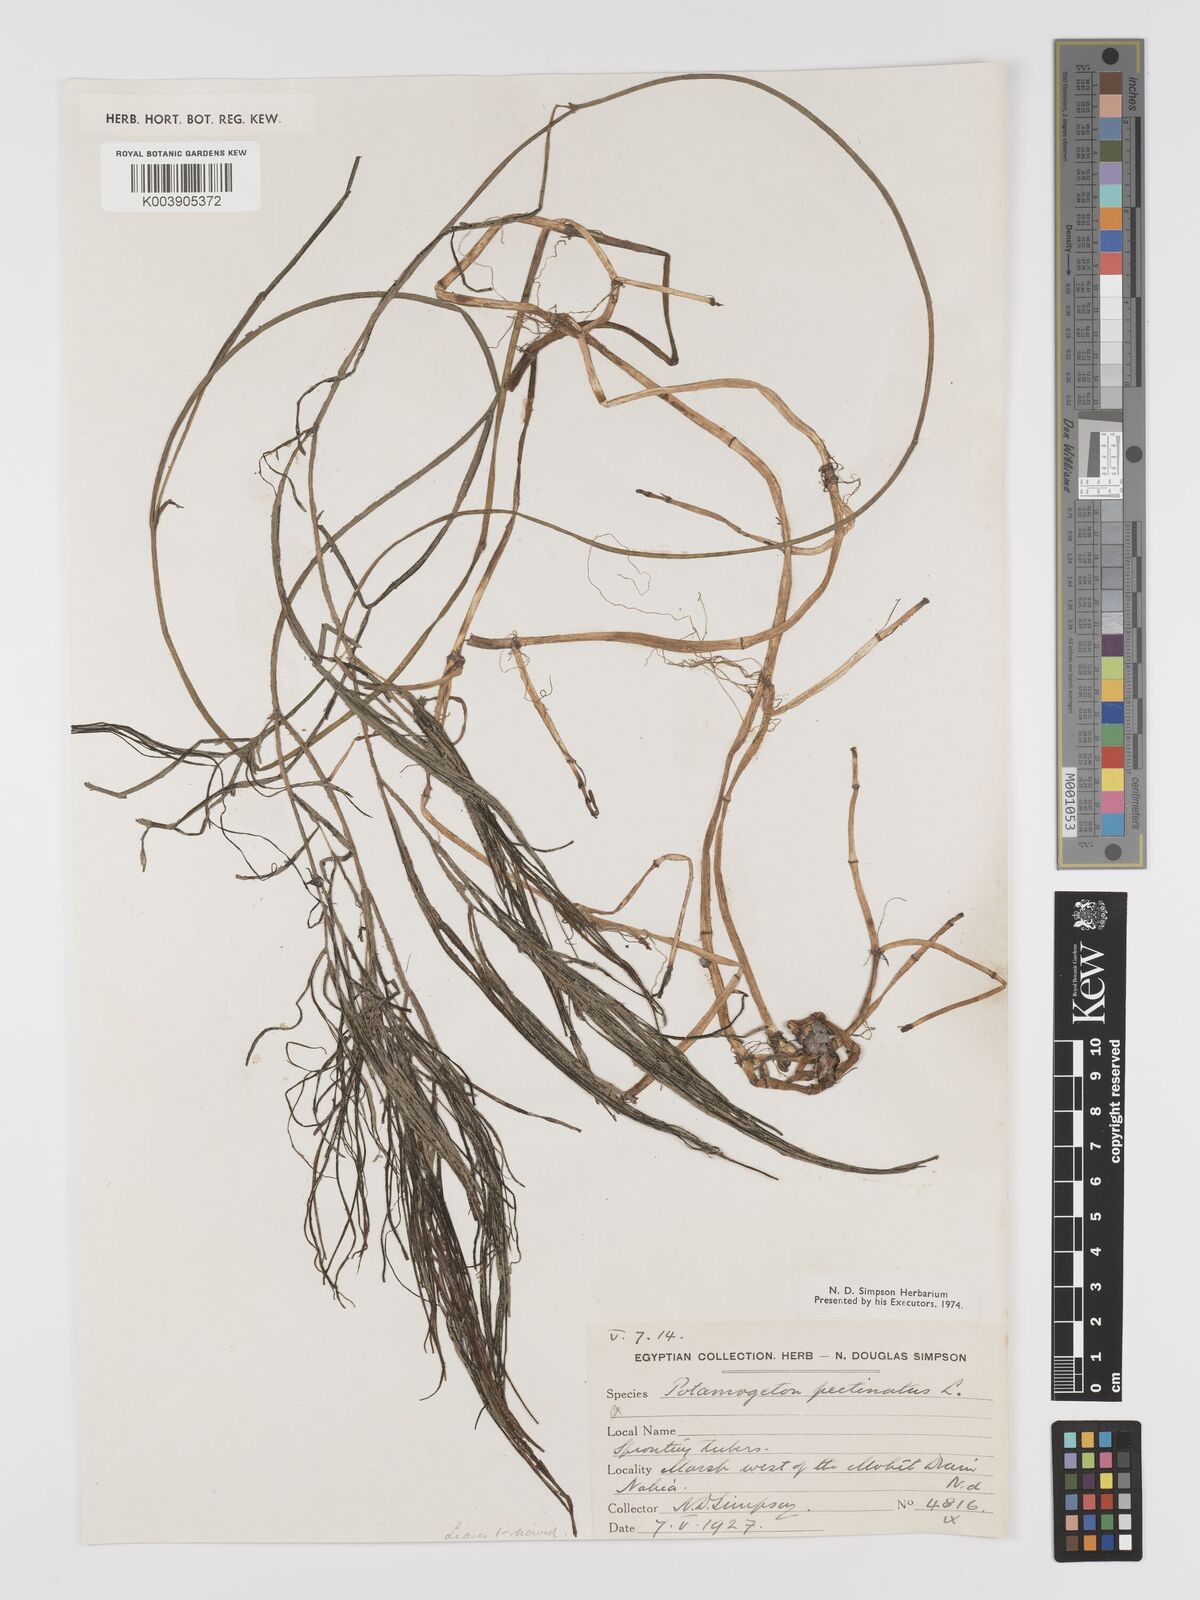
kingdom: Plantae
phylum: Tracheophyta
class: Liliopsida
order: Alismatales
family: Potamogetonaceae
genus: Stuckenia
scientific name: Stuckenia pectinata
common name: Sago pondweed
